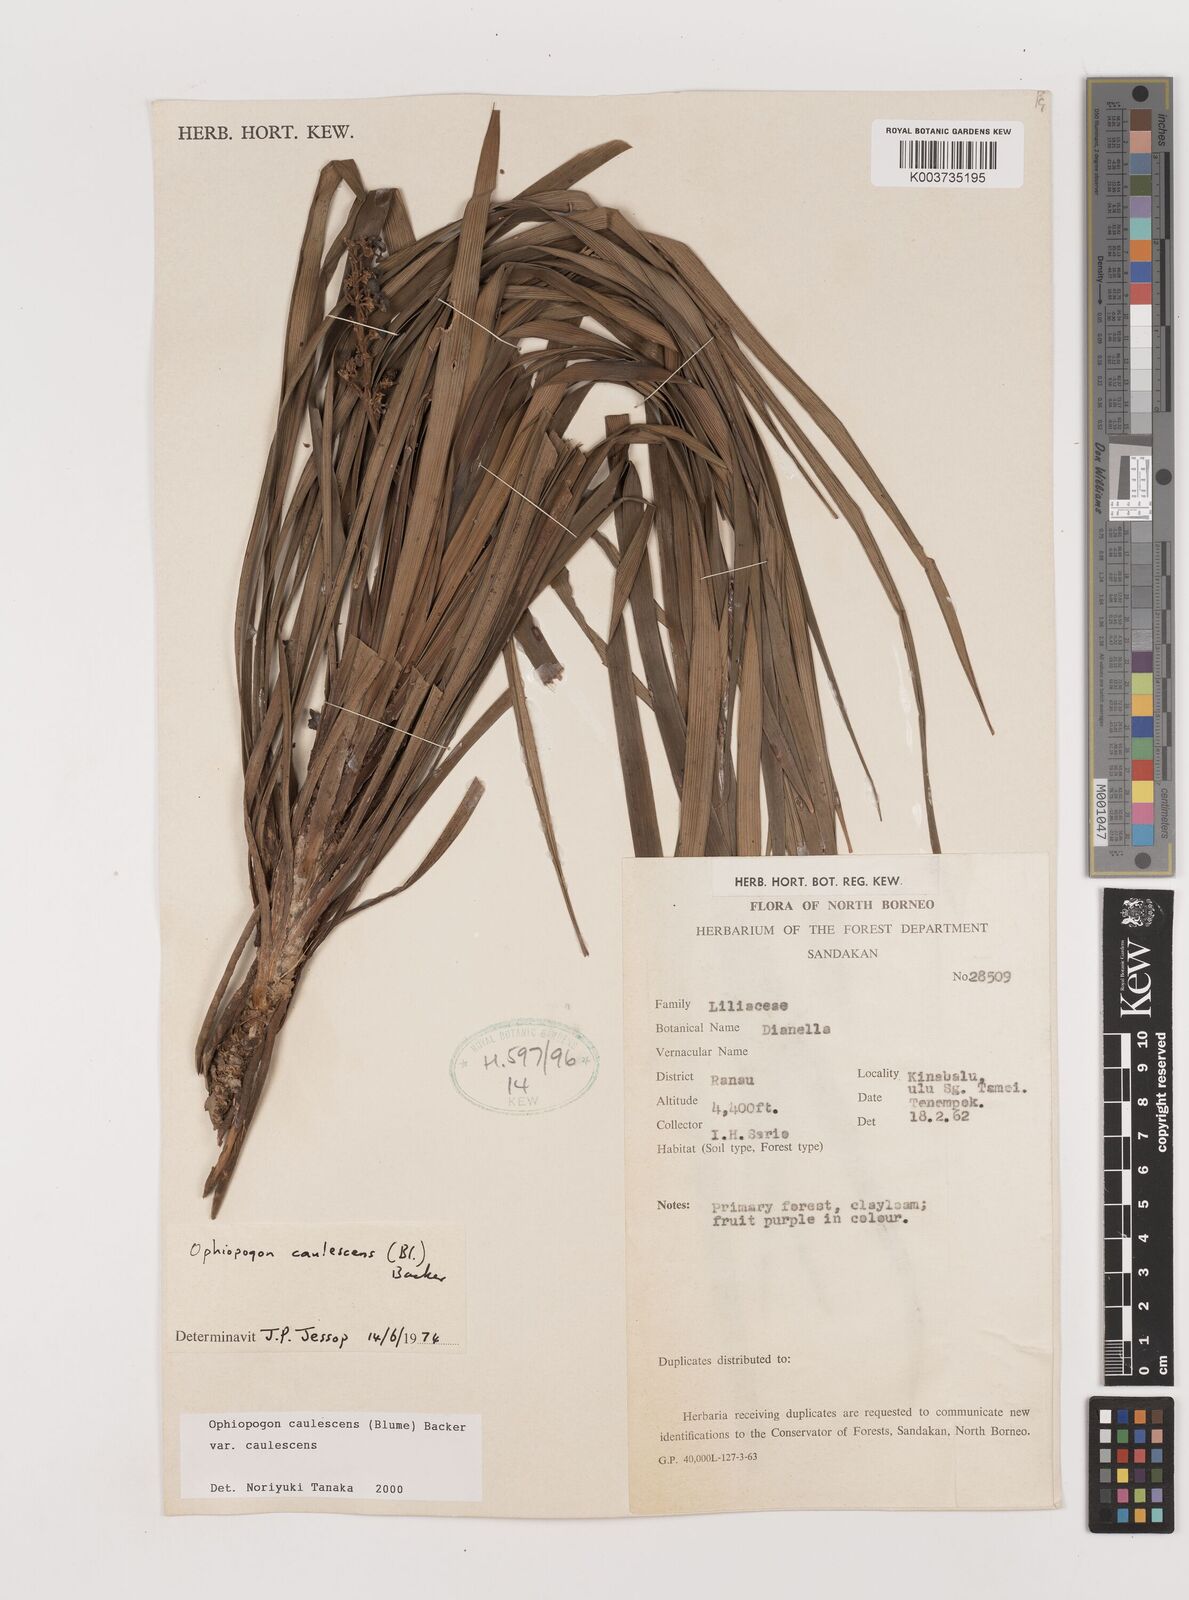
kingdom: Plantae
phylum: Tracheophyta
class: Liliopsida
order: Asparagales
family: Asparagaceae
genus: Ophiopogon
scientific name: Ophiopogon caulescens
